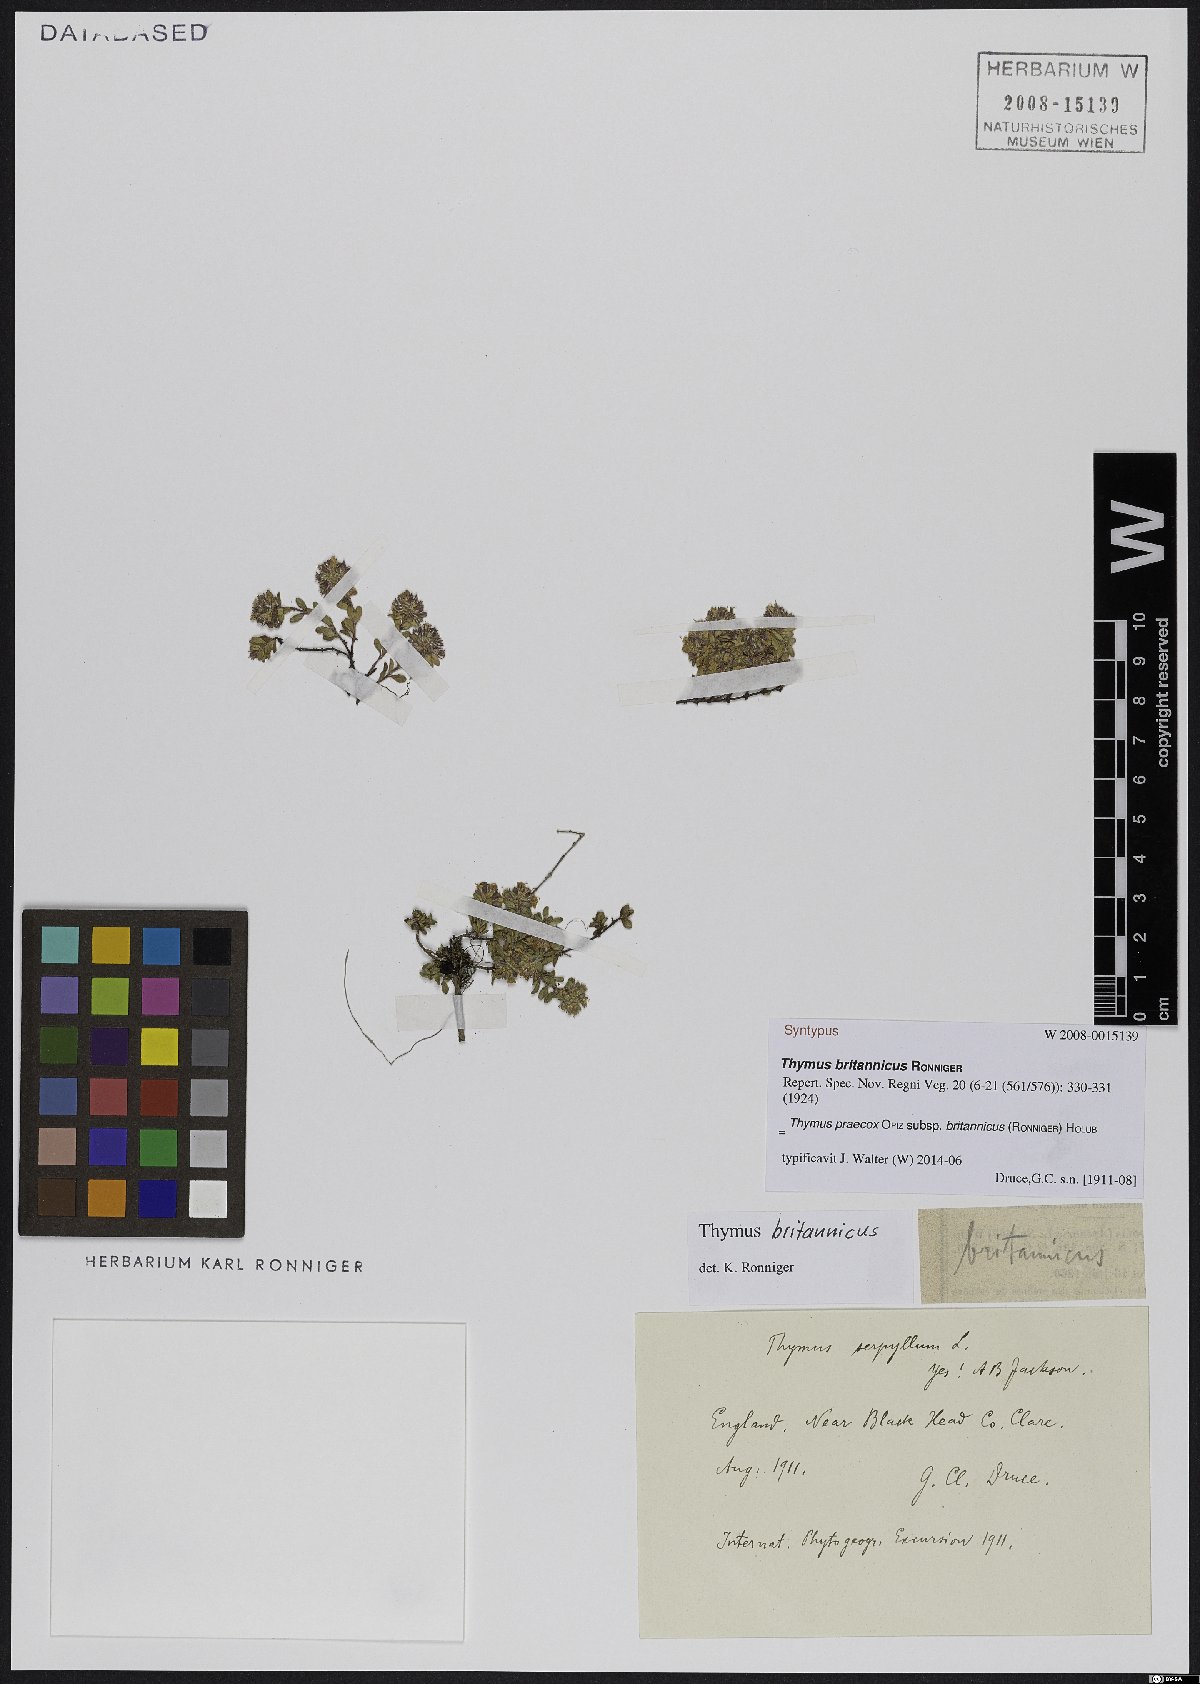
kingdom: Plantae
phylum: Tracheophyta
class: Magnoliopsida
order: Lamiales
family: Lamiaceae
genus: Thymus
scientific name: Thymus praecox
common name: Wild thyme
